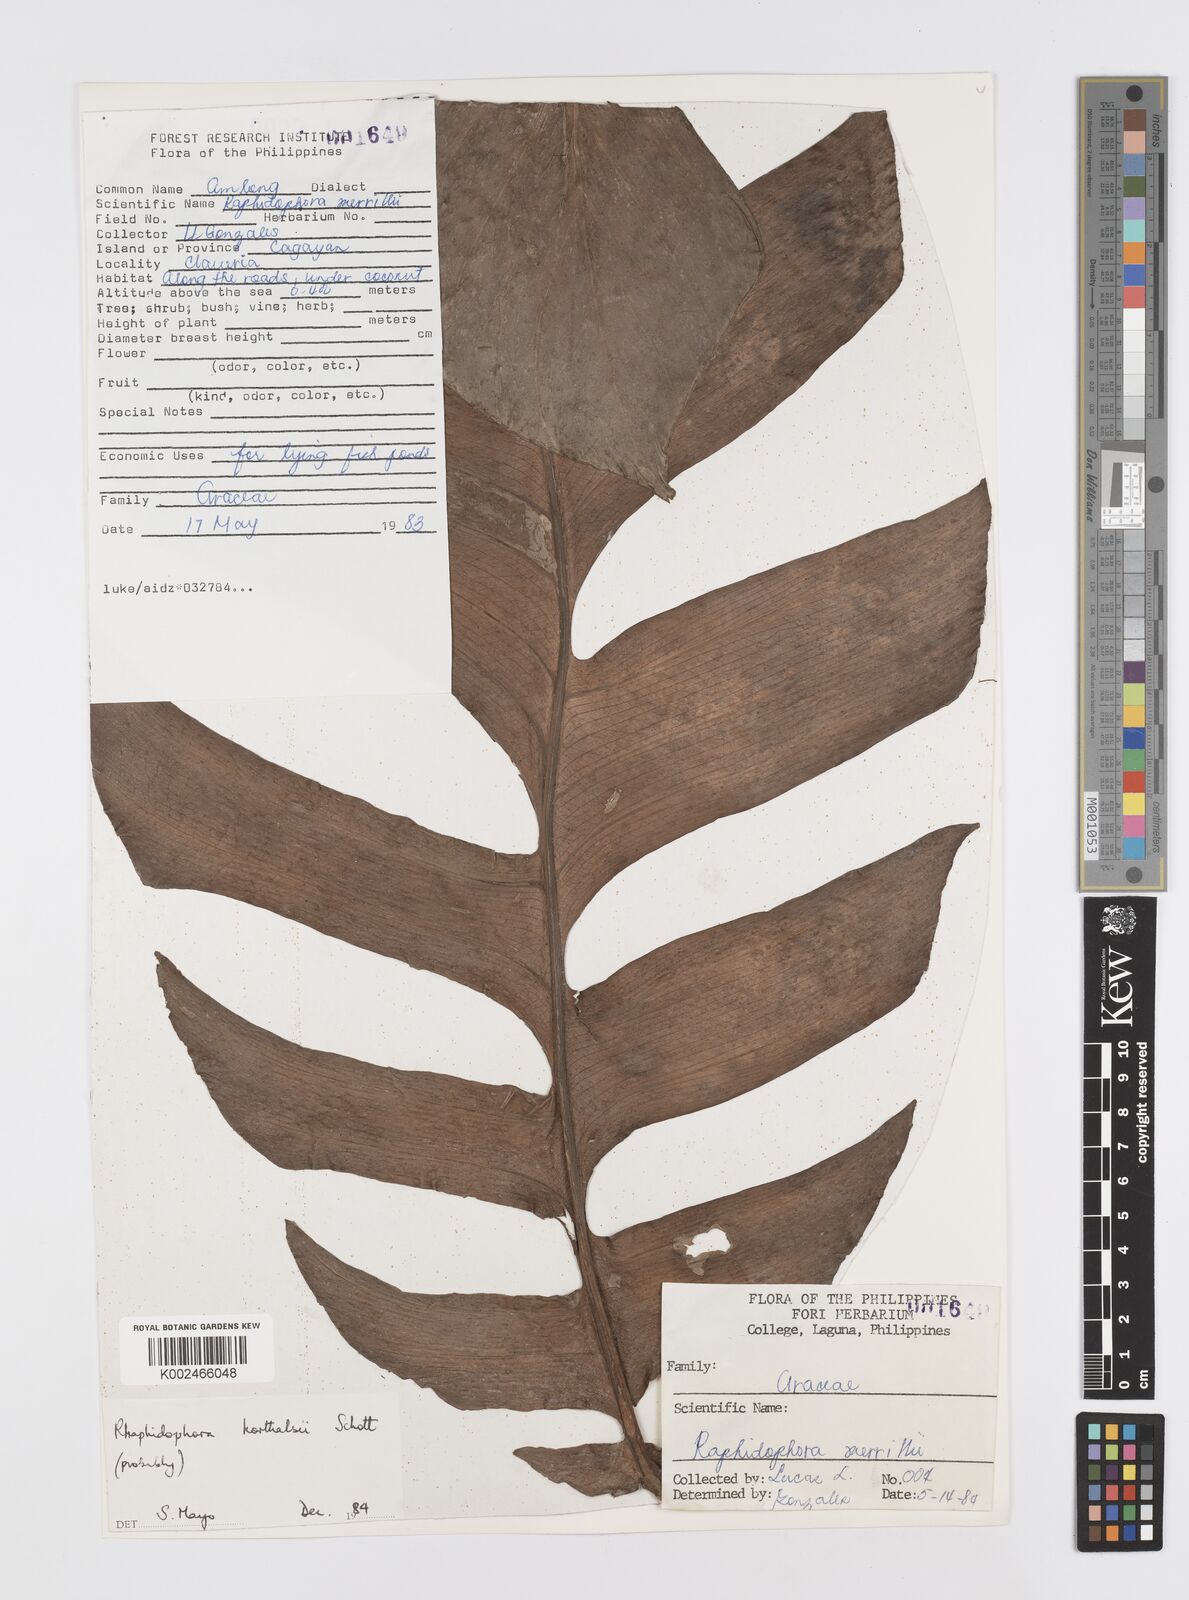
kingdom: Plantae
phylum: Tracheophyta
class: Liliopsida
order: Alismatales
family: Araceae
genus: Rhaphidophora
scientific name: Rhaphidophora korthalsii
